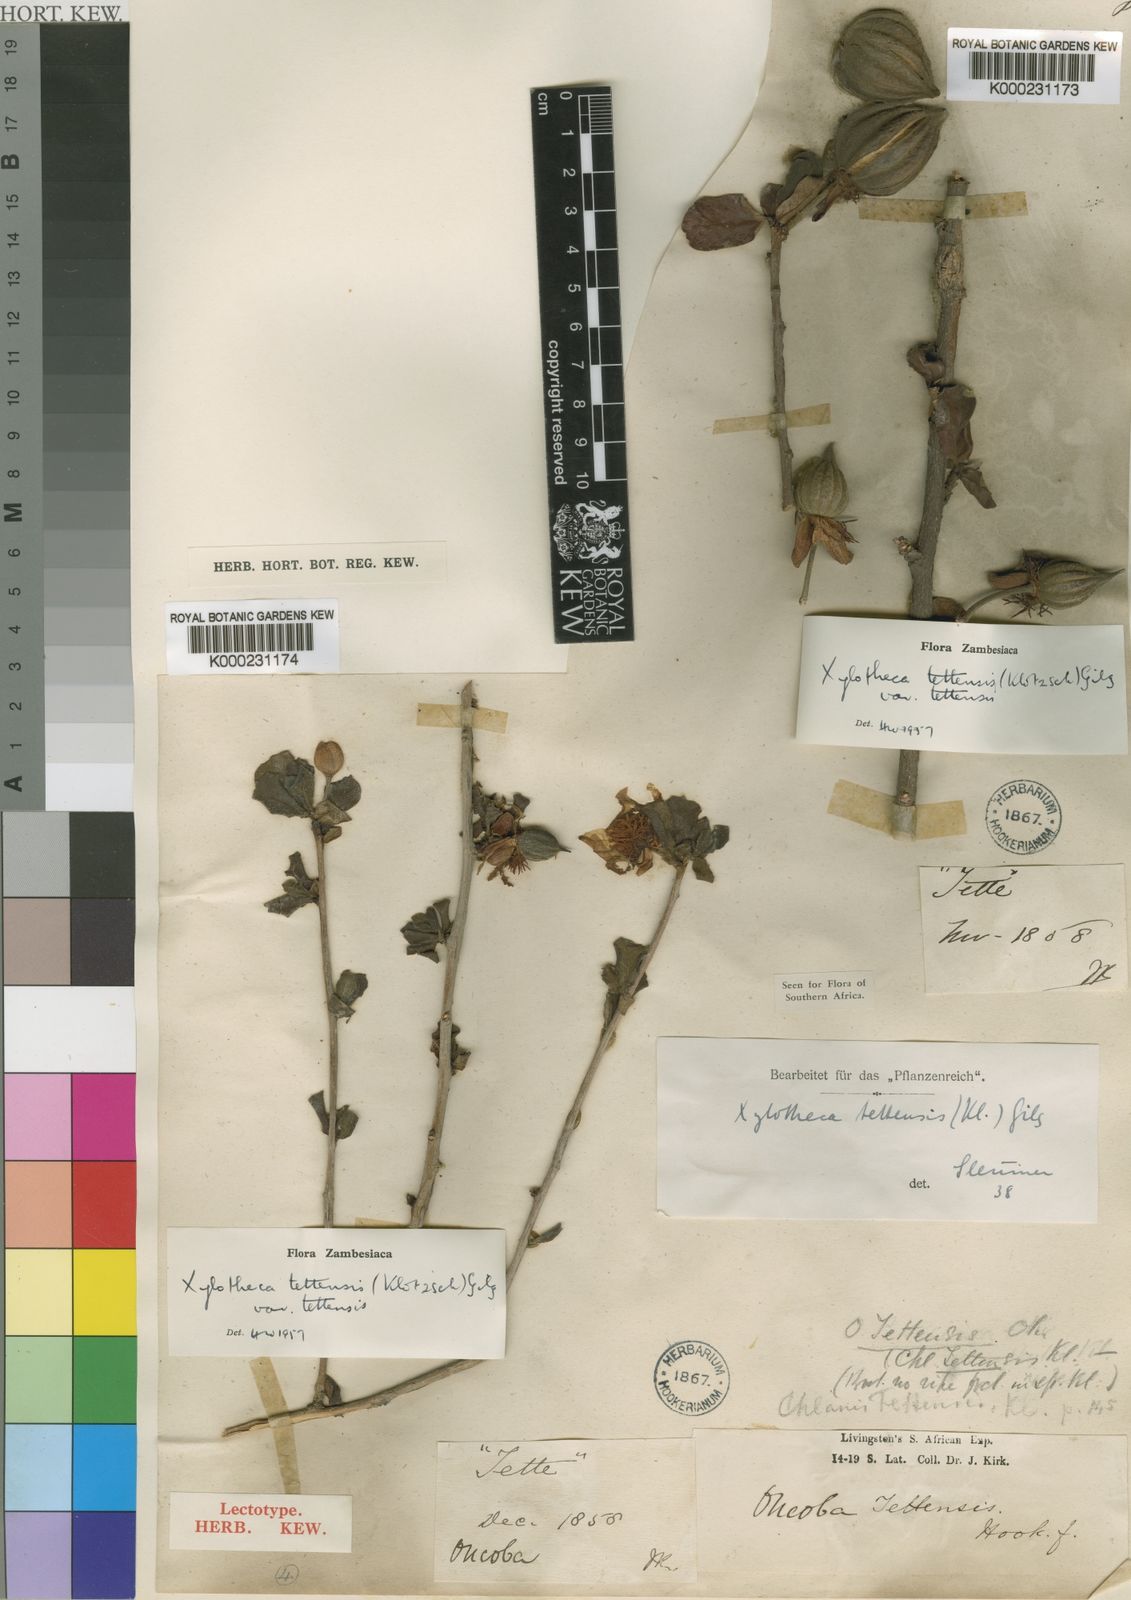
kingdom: Plantae
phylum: Tracheophyta
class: Magnoliopsida
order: Malpighiales
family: Achariaceae
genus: Xylotheca
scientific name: Xylotheca tettensis
